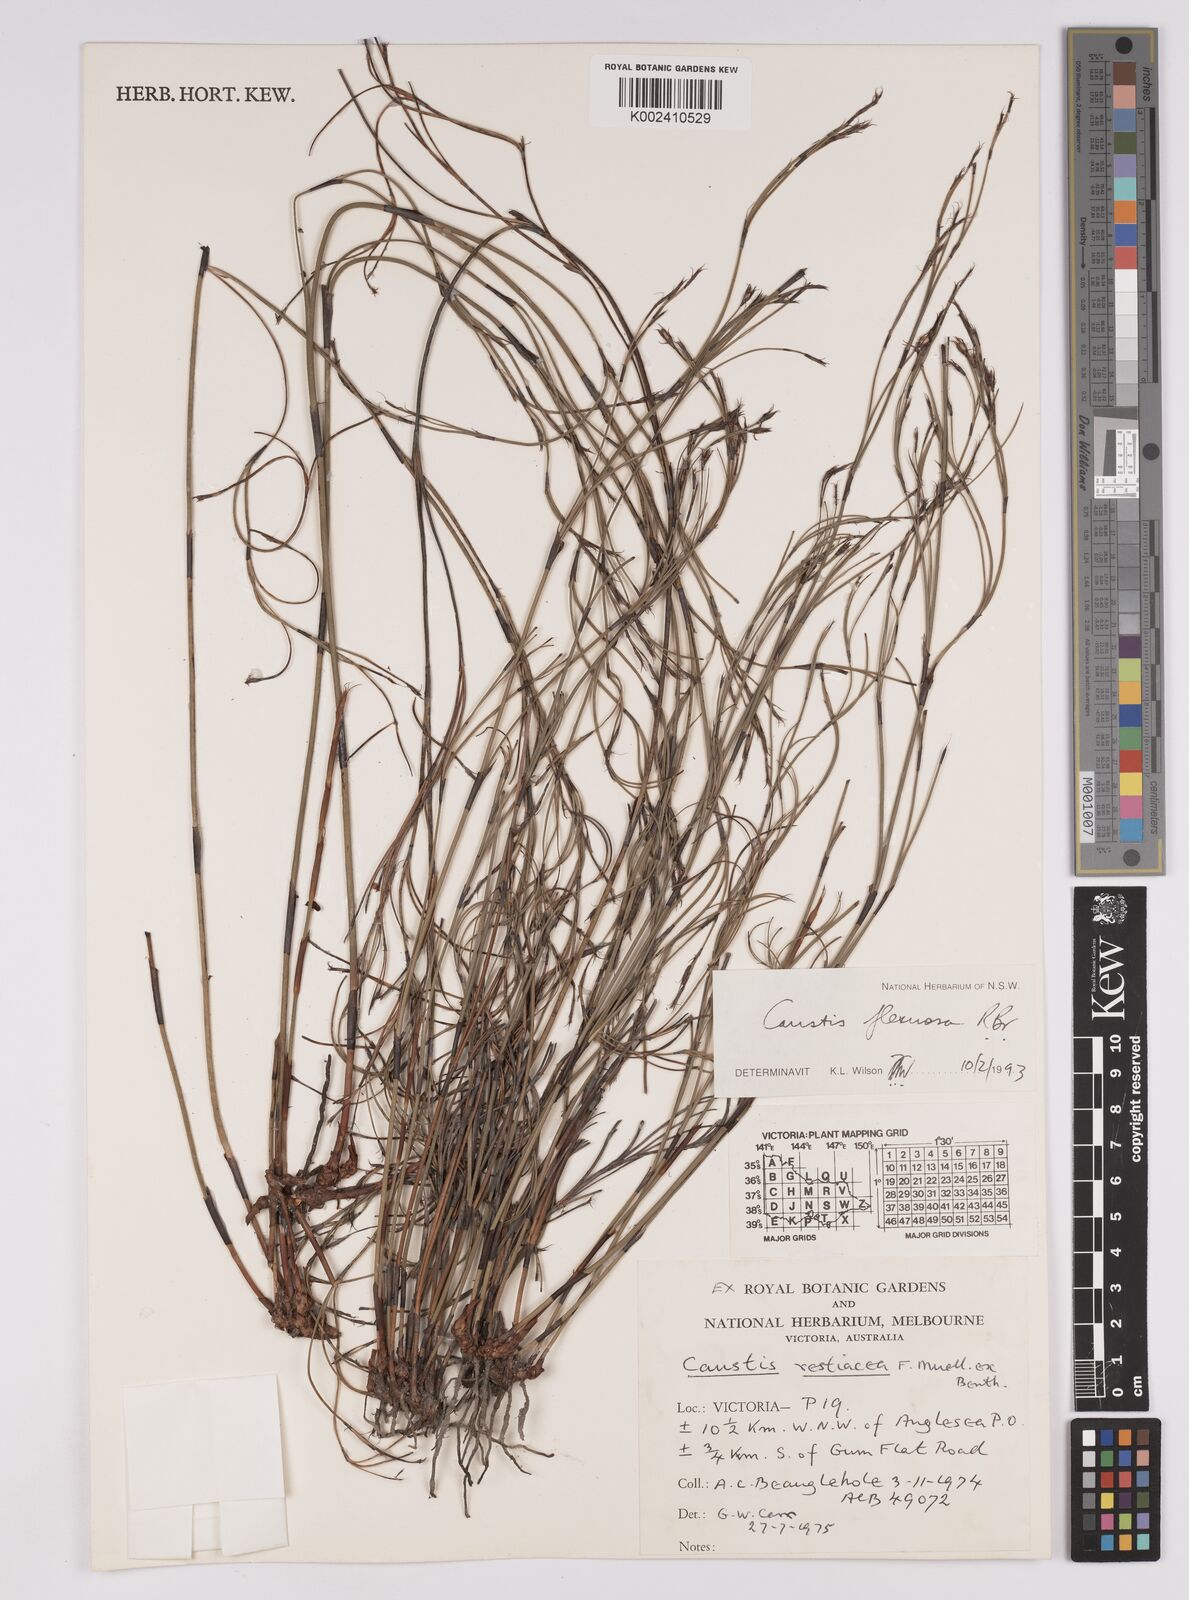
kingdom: Plantae
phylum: Tracheophyta
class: Liliopsida
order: Poales
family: Cyperaceae
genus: Caustis
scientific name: Caustis flexuosa
